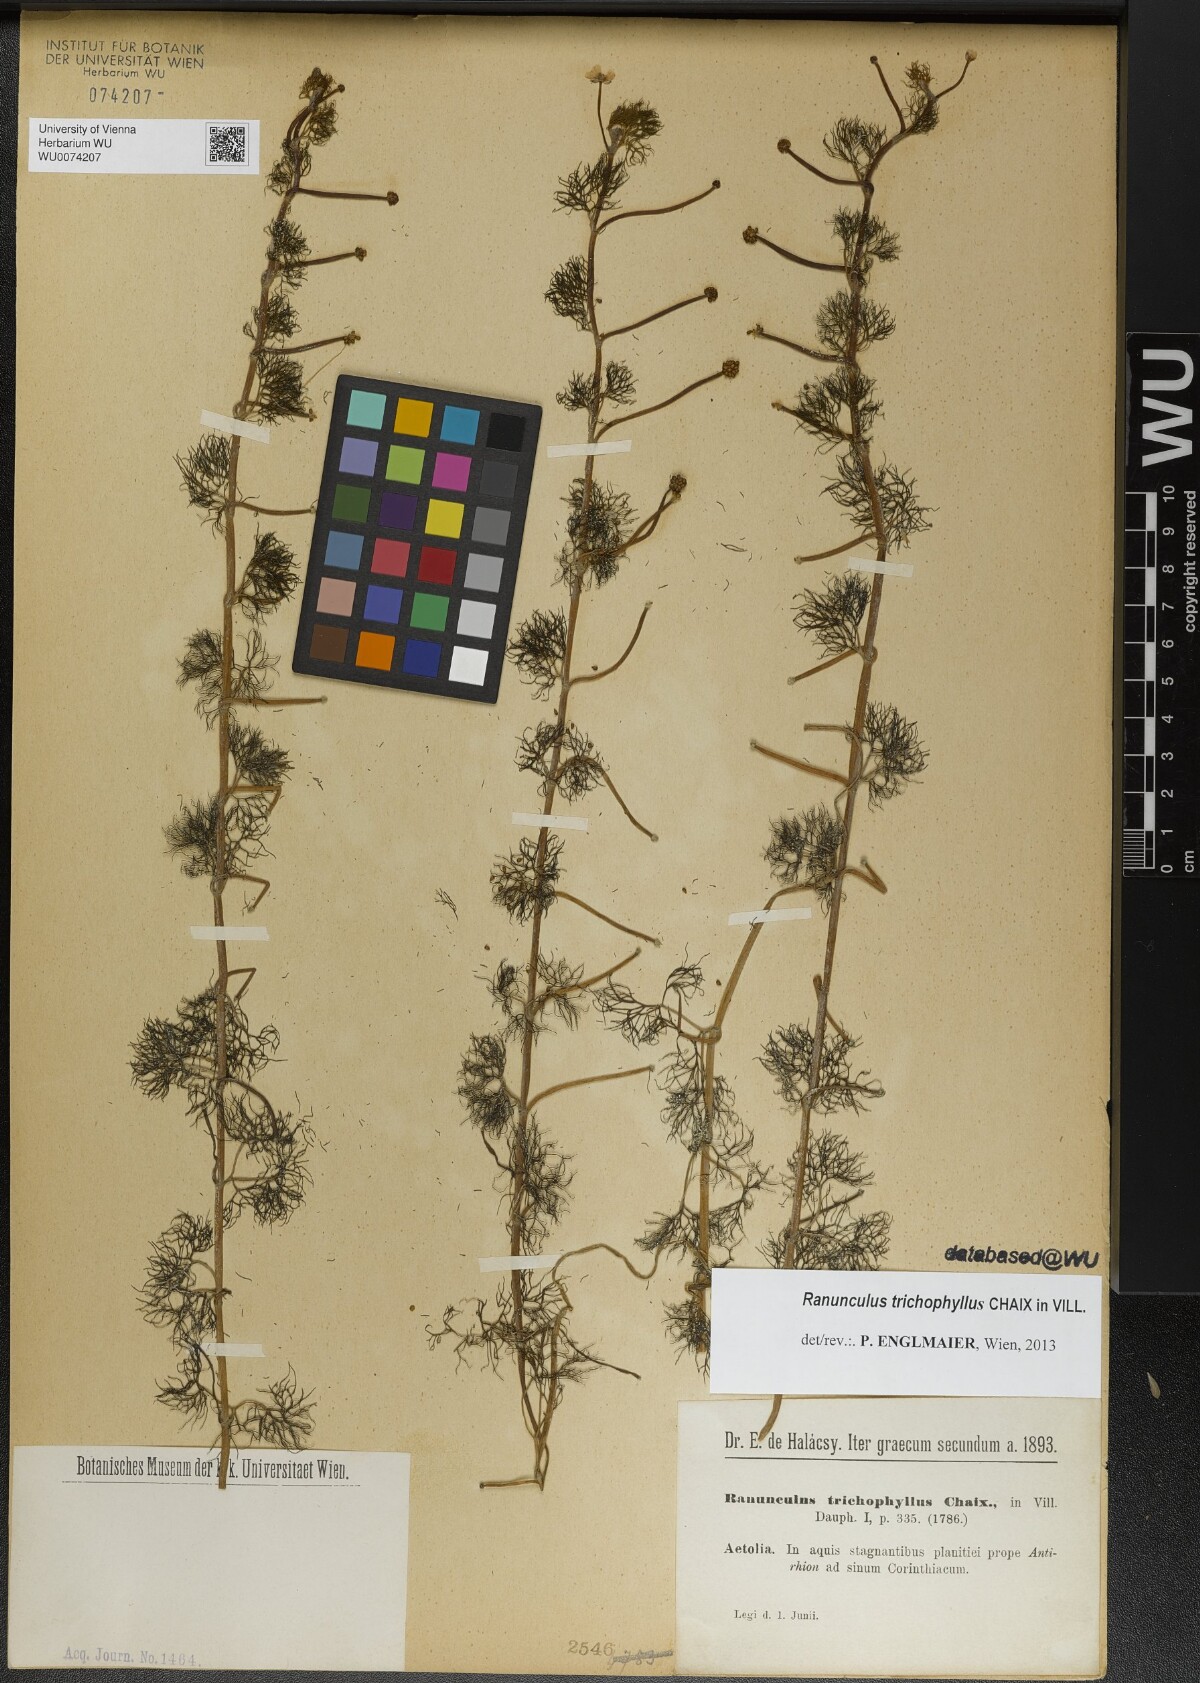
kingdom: Plantae
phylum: Tracheophyta
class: Magnoliopsida
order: Ranunculales
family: Ranunculaceae
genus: Ranunculus
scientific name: Ranunculus trichophyllus
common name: Thread-leaved water-crowfoot
